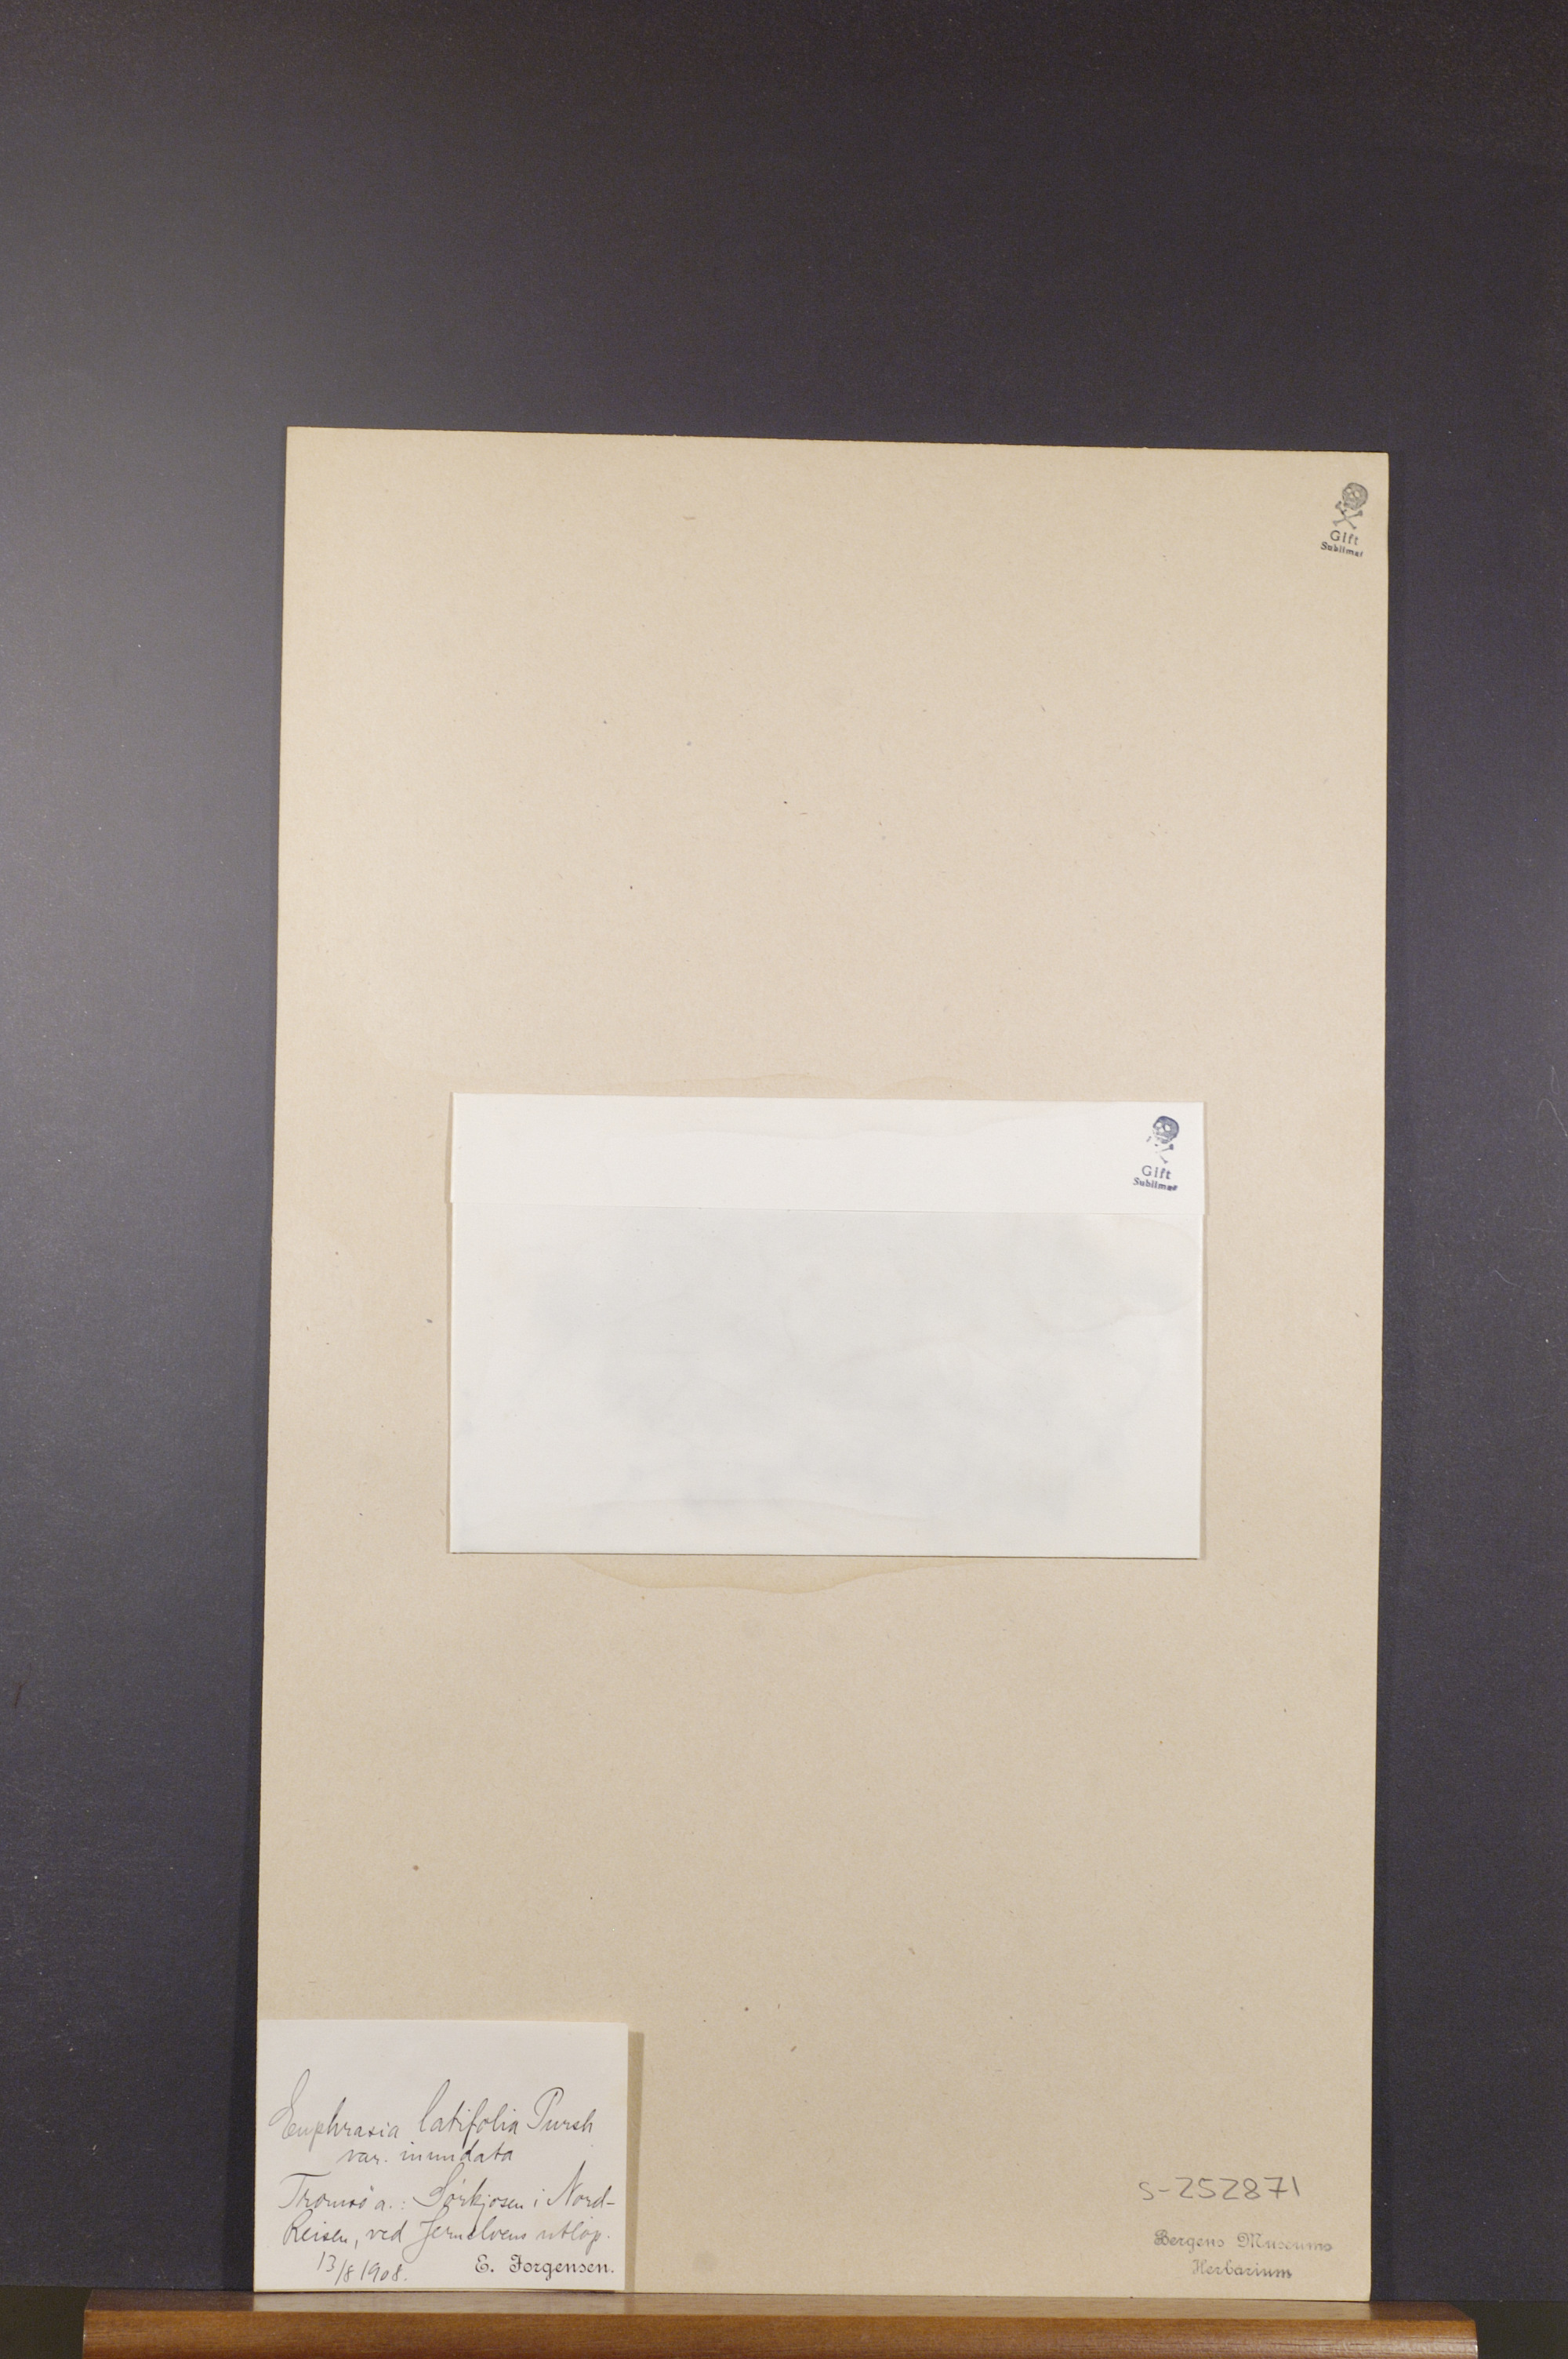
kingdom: Plantae
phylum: Tracheophyta
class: Magnoliopsida
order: Lamiales
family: Orobanchaceae
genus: Euphrasia
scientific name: Euphrasia bottnica
